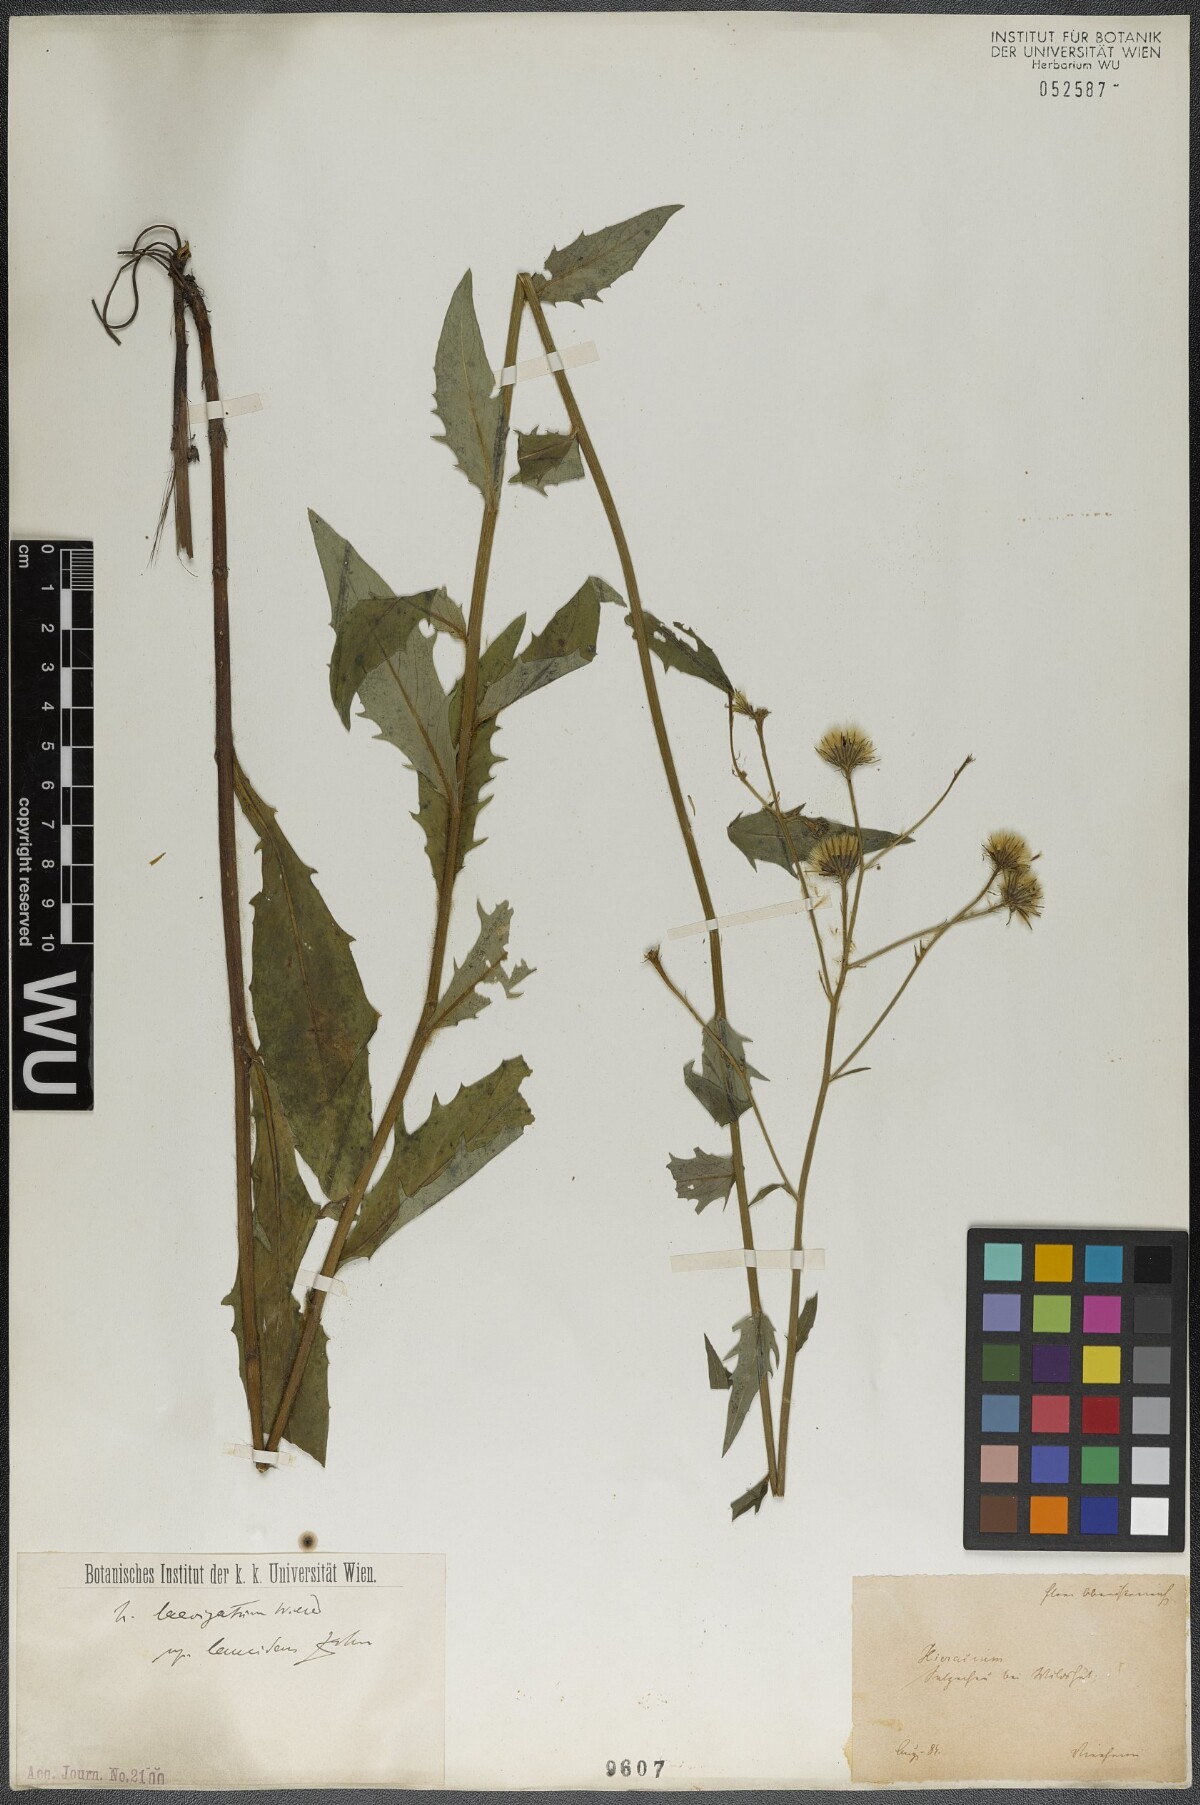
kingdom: Plantae
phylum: Tracheophyta
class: Magnoliopsida
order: Asterales
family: Asteraceae
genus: Hieracium
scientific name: Hieracium laevigatum
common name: Smooth hawkweed
